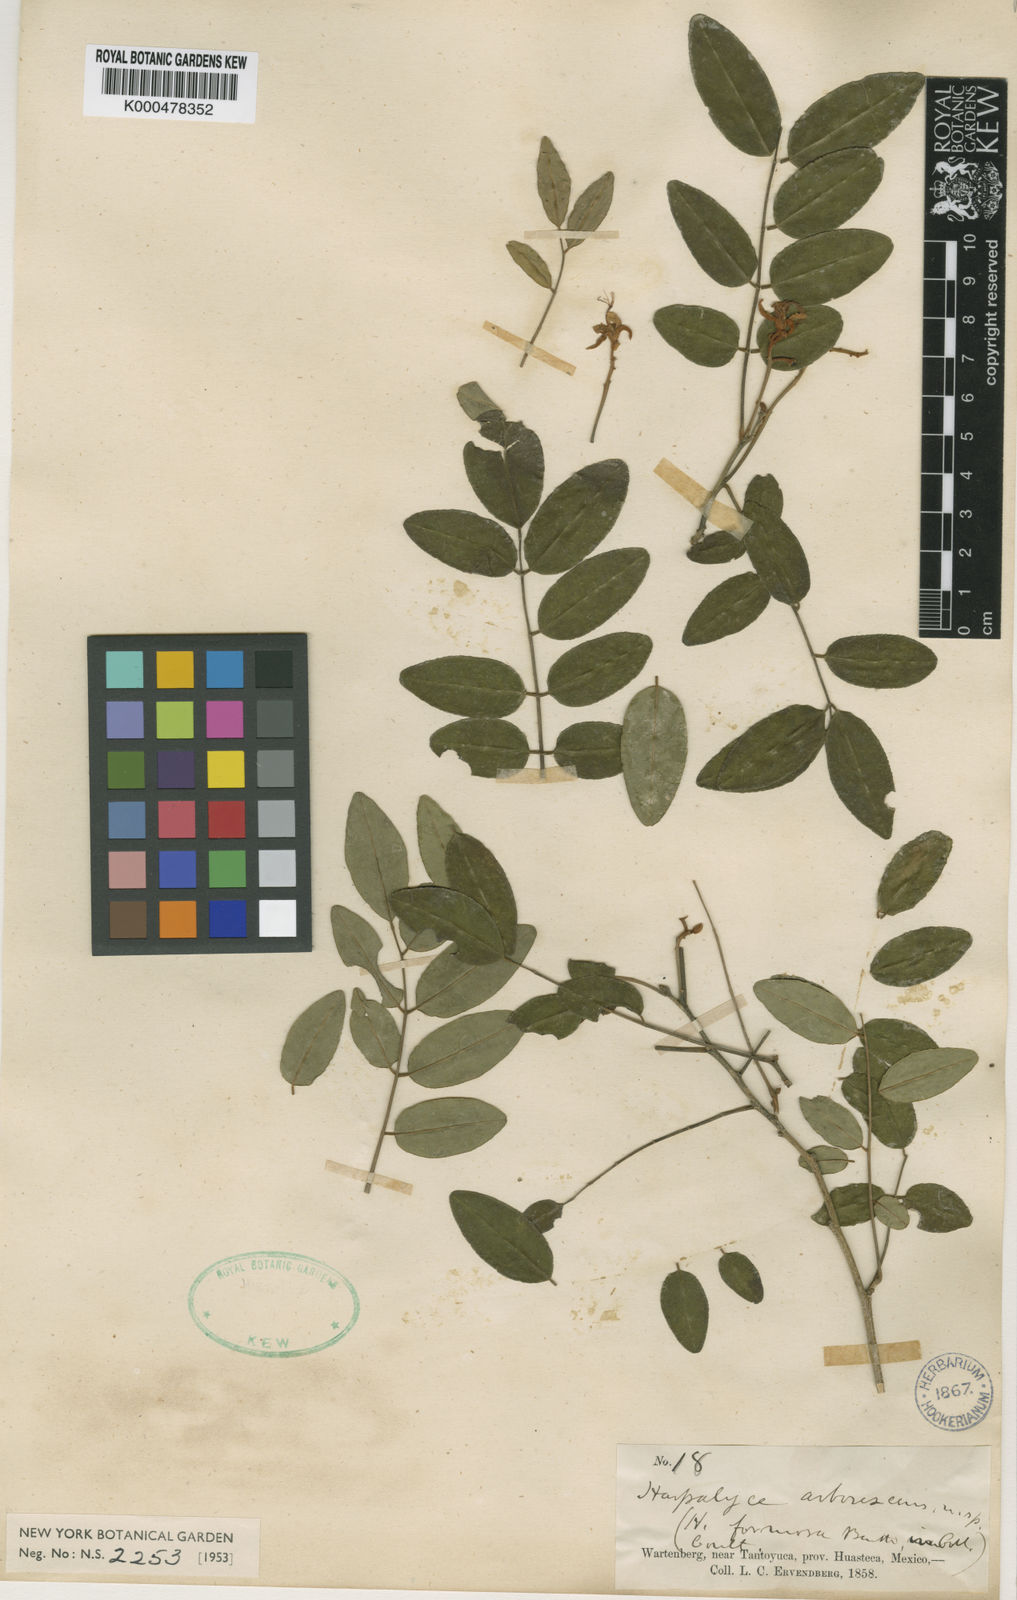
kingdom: Plantae
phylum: Tracheophyta
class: Magnoliopsida
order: Fabales
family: Fabaceae
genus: Harpalyce
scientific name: Harpalyce arborescens
